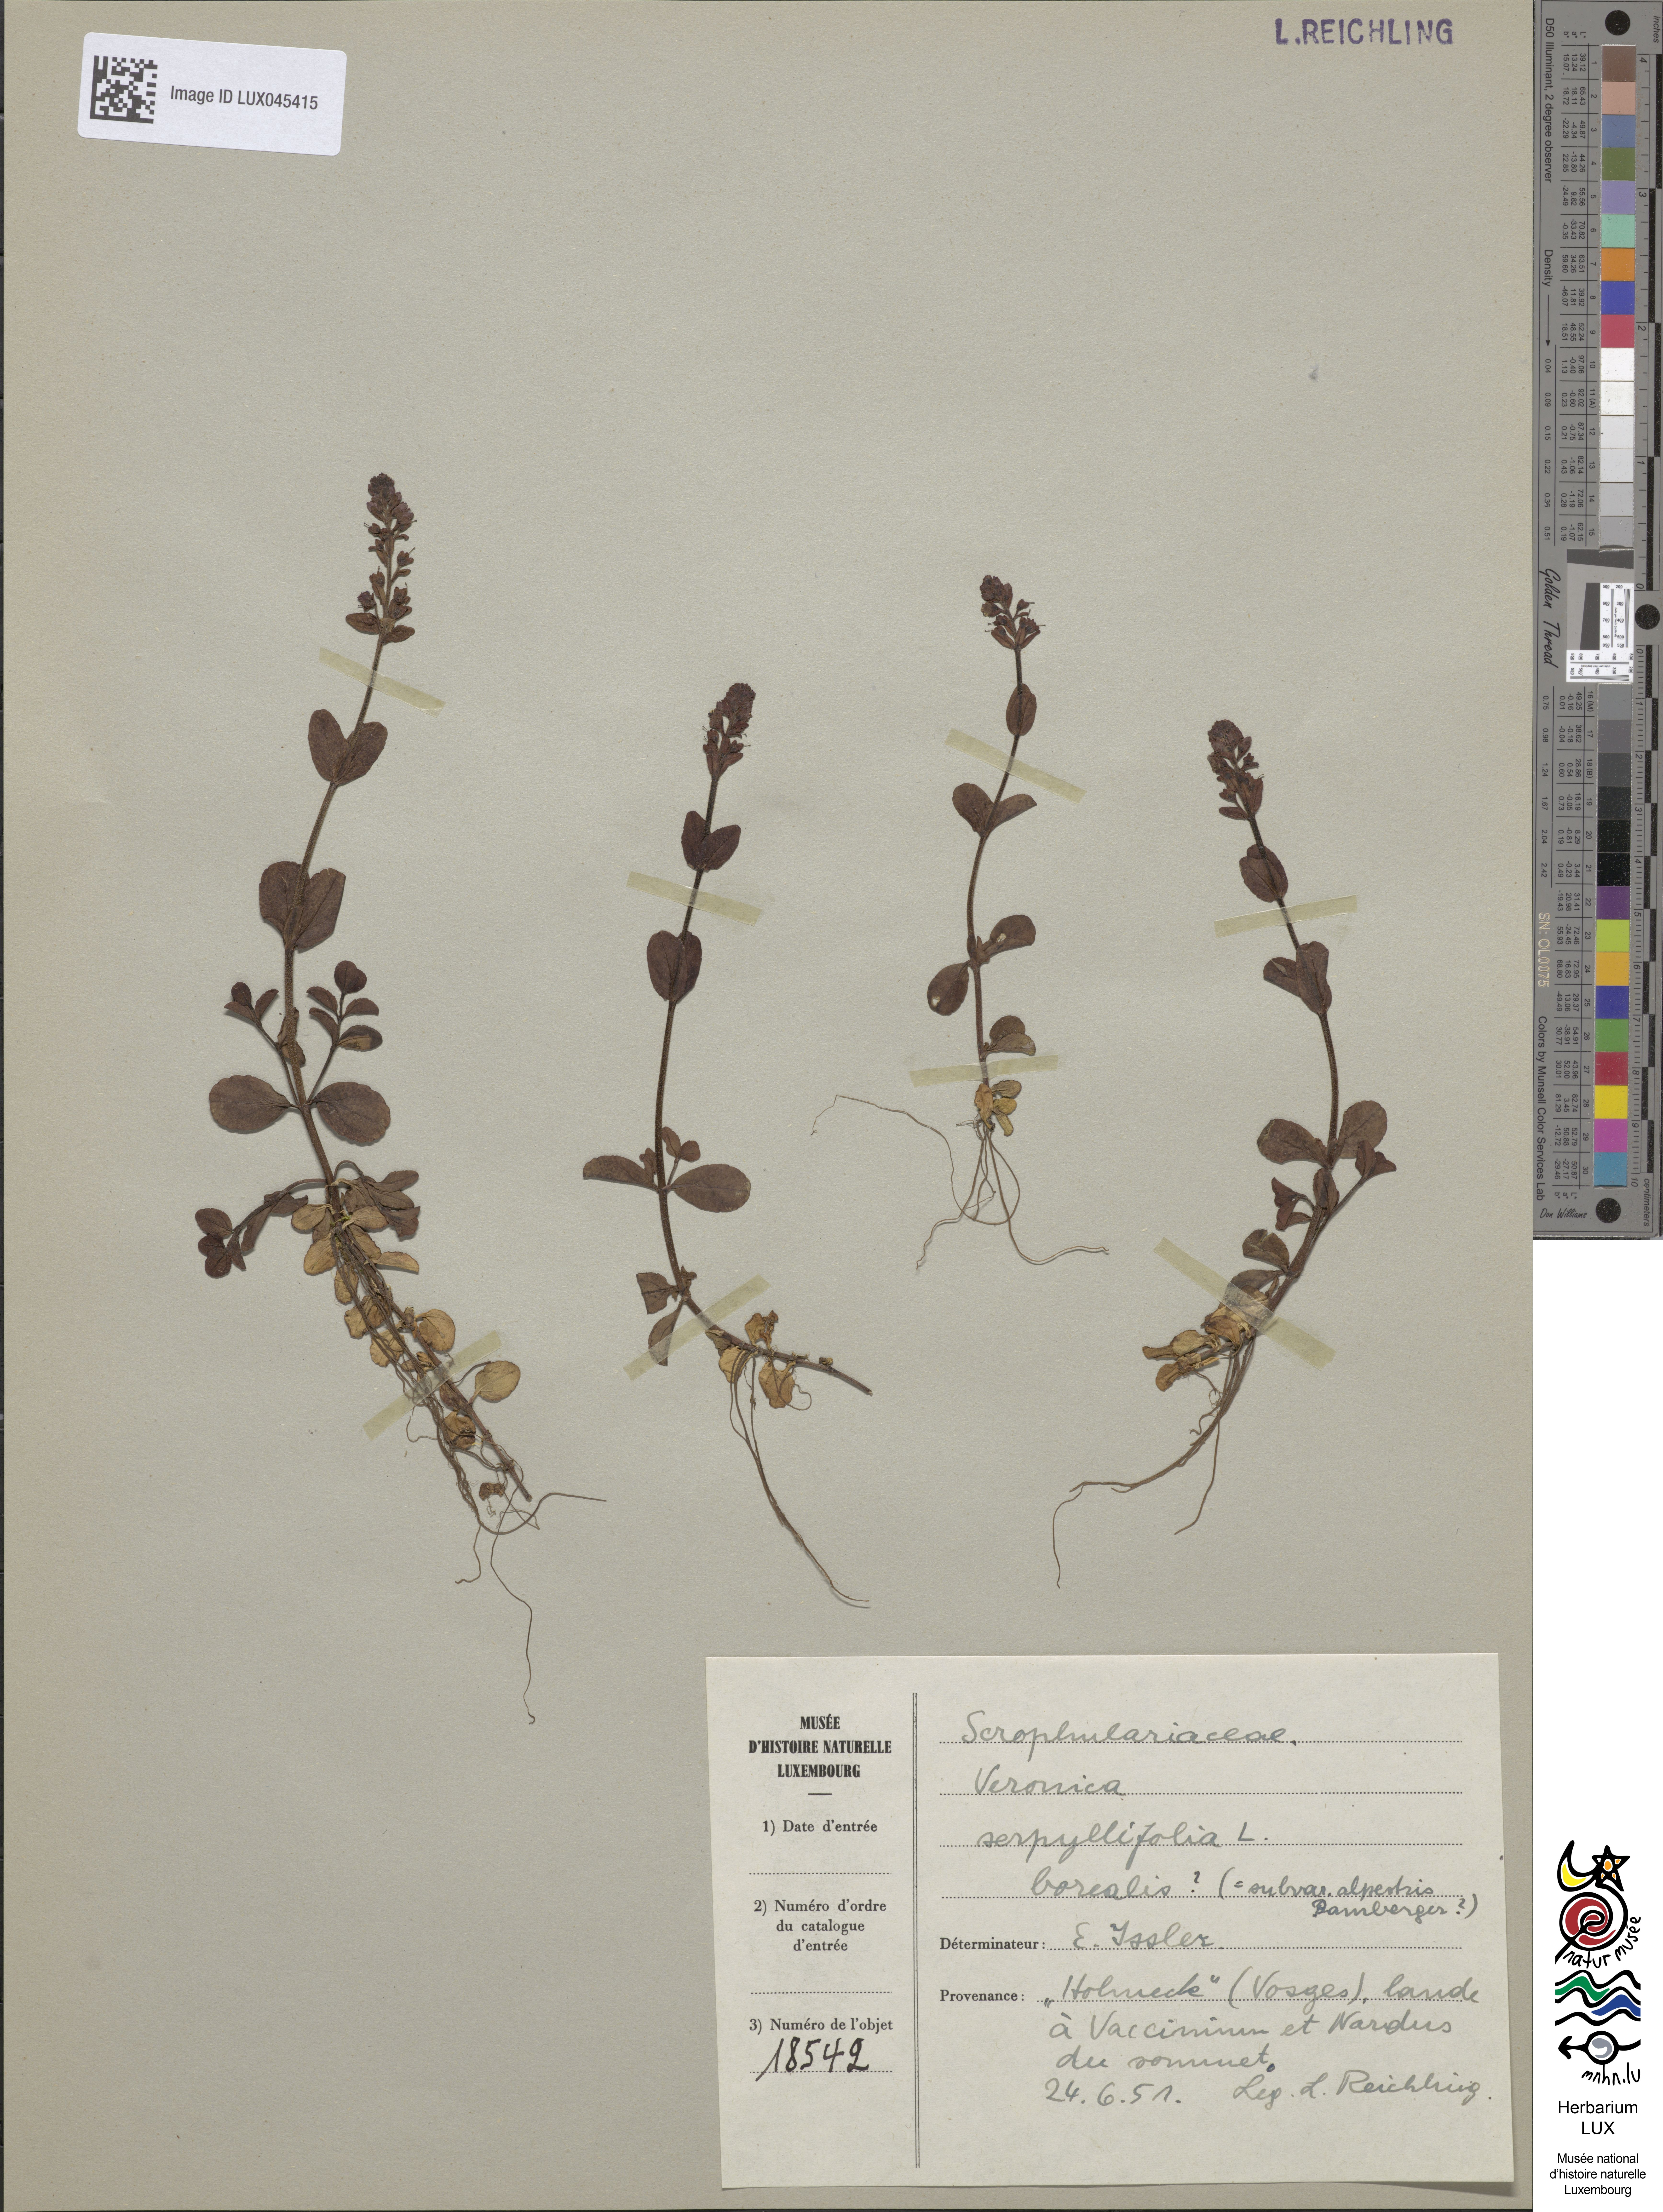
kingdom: Plantae
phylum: Tracheophyta
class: Magnoliopsida
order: Lamiales
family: Plantaginaceae
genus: Veronica
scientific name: Veronica serpyllifolia
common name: Thyme-leaved speedwell
